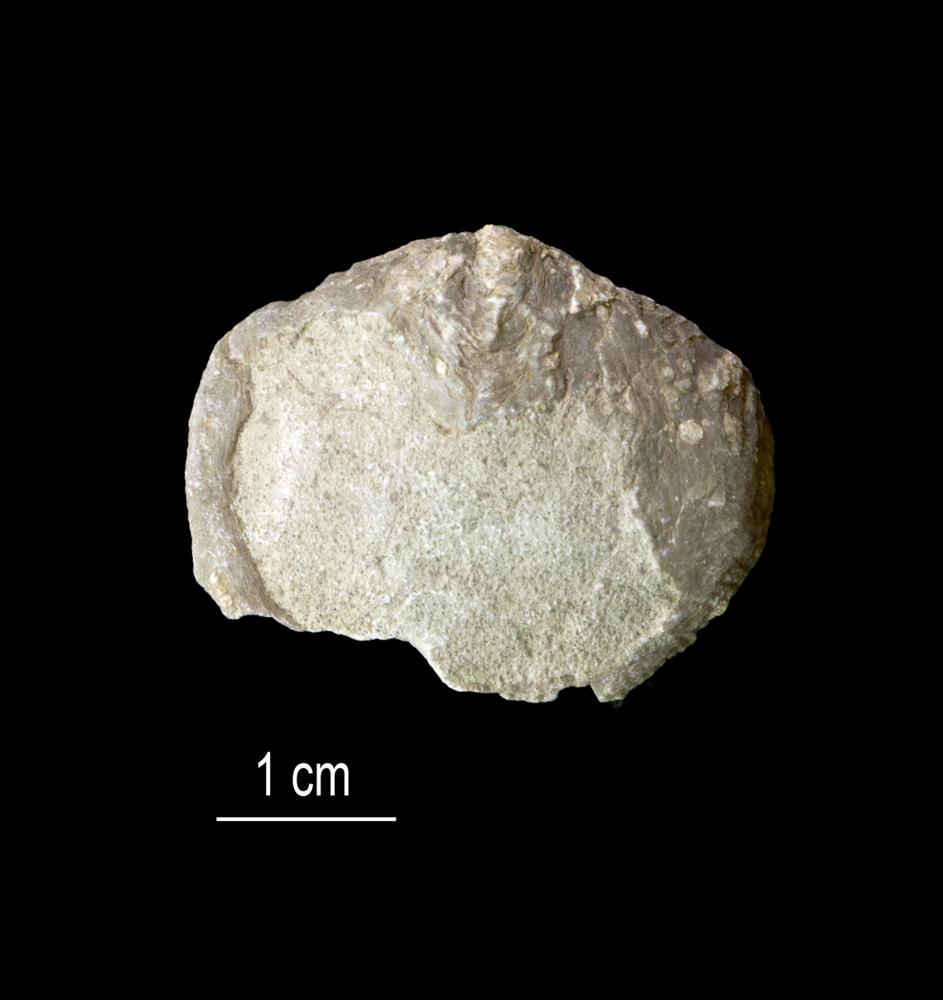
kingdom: Animalia
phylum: Brachiopoda
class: Rhynchonellata
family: Clitambonitidae
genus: Clitambonites
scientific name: Clitambonites squamatus
